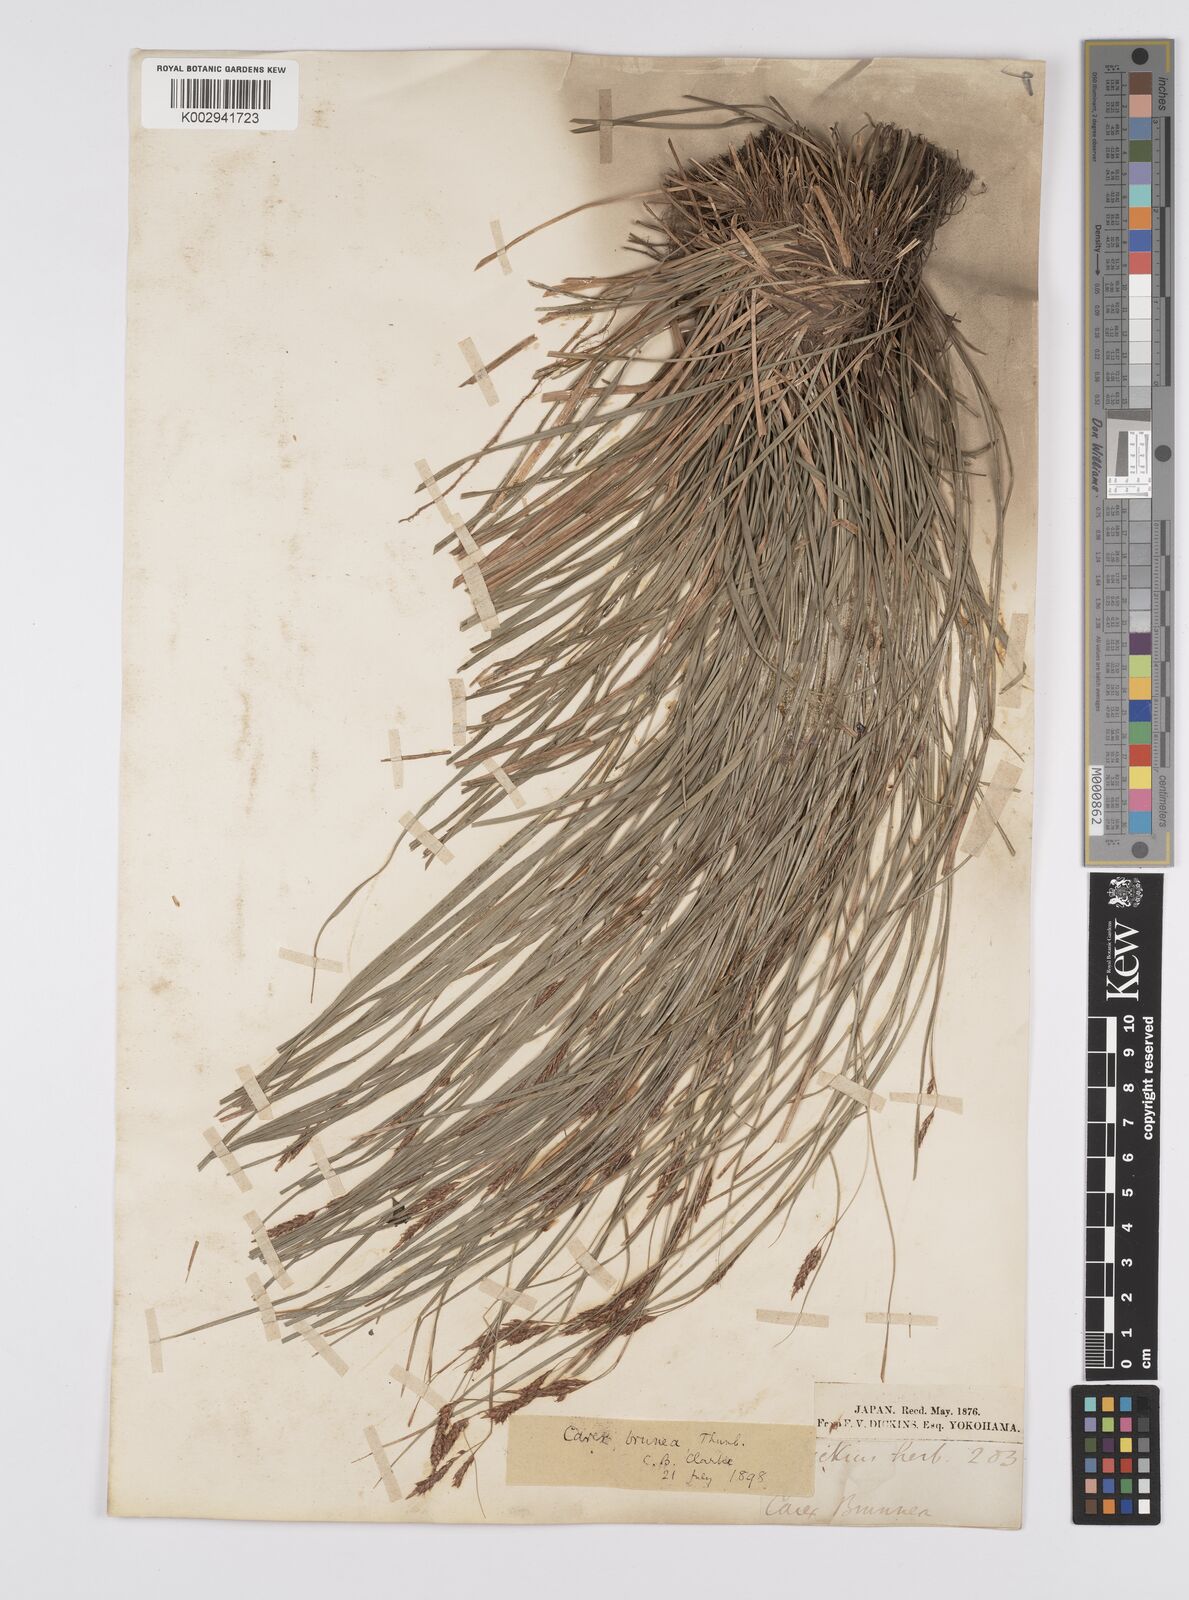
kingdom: Plantae
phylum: Tracheophyta
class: Liliopsida
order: Poales
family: Cyperaceae
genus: Carex
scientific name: Carex brunnea
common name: Greater brown sedge
